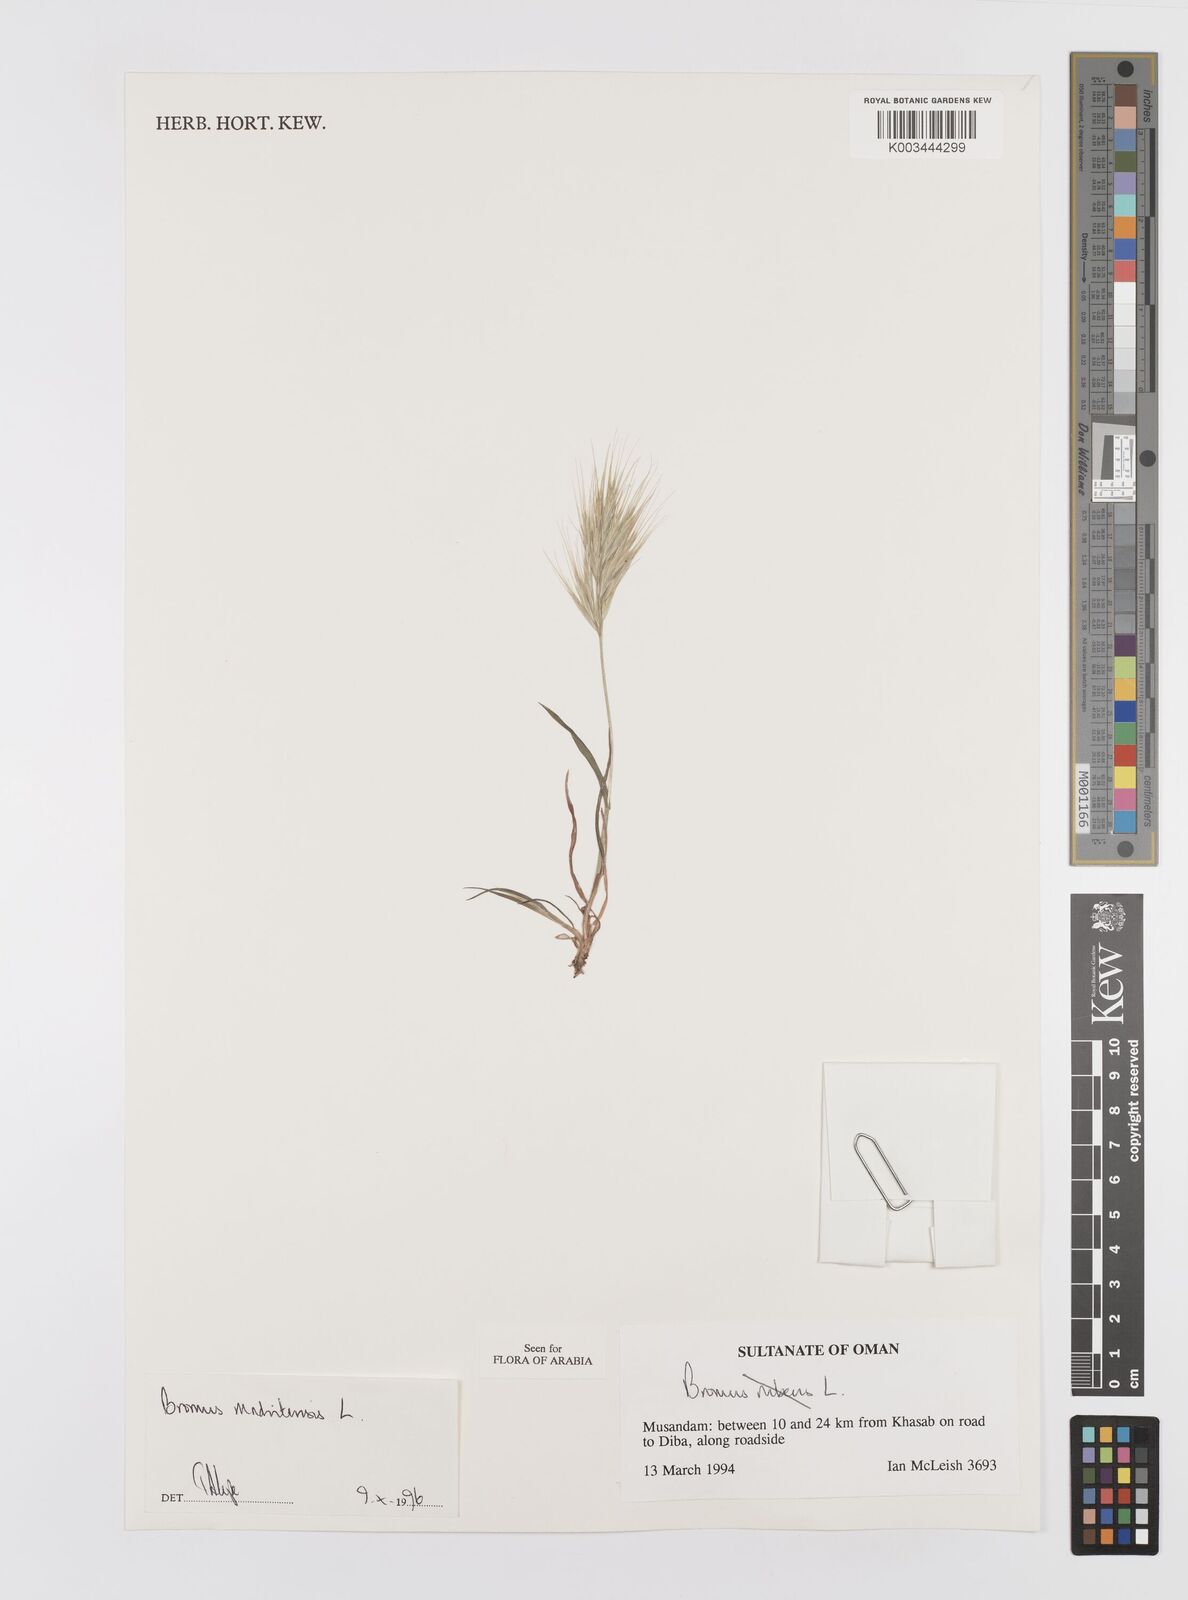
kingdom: Plantae
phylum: Tracheophyta
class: Liliopsida
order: Poales
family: Poaceae
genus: Bromus
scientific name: Bromus madritensis
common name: Compact brome
